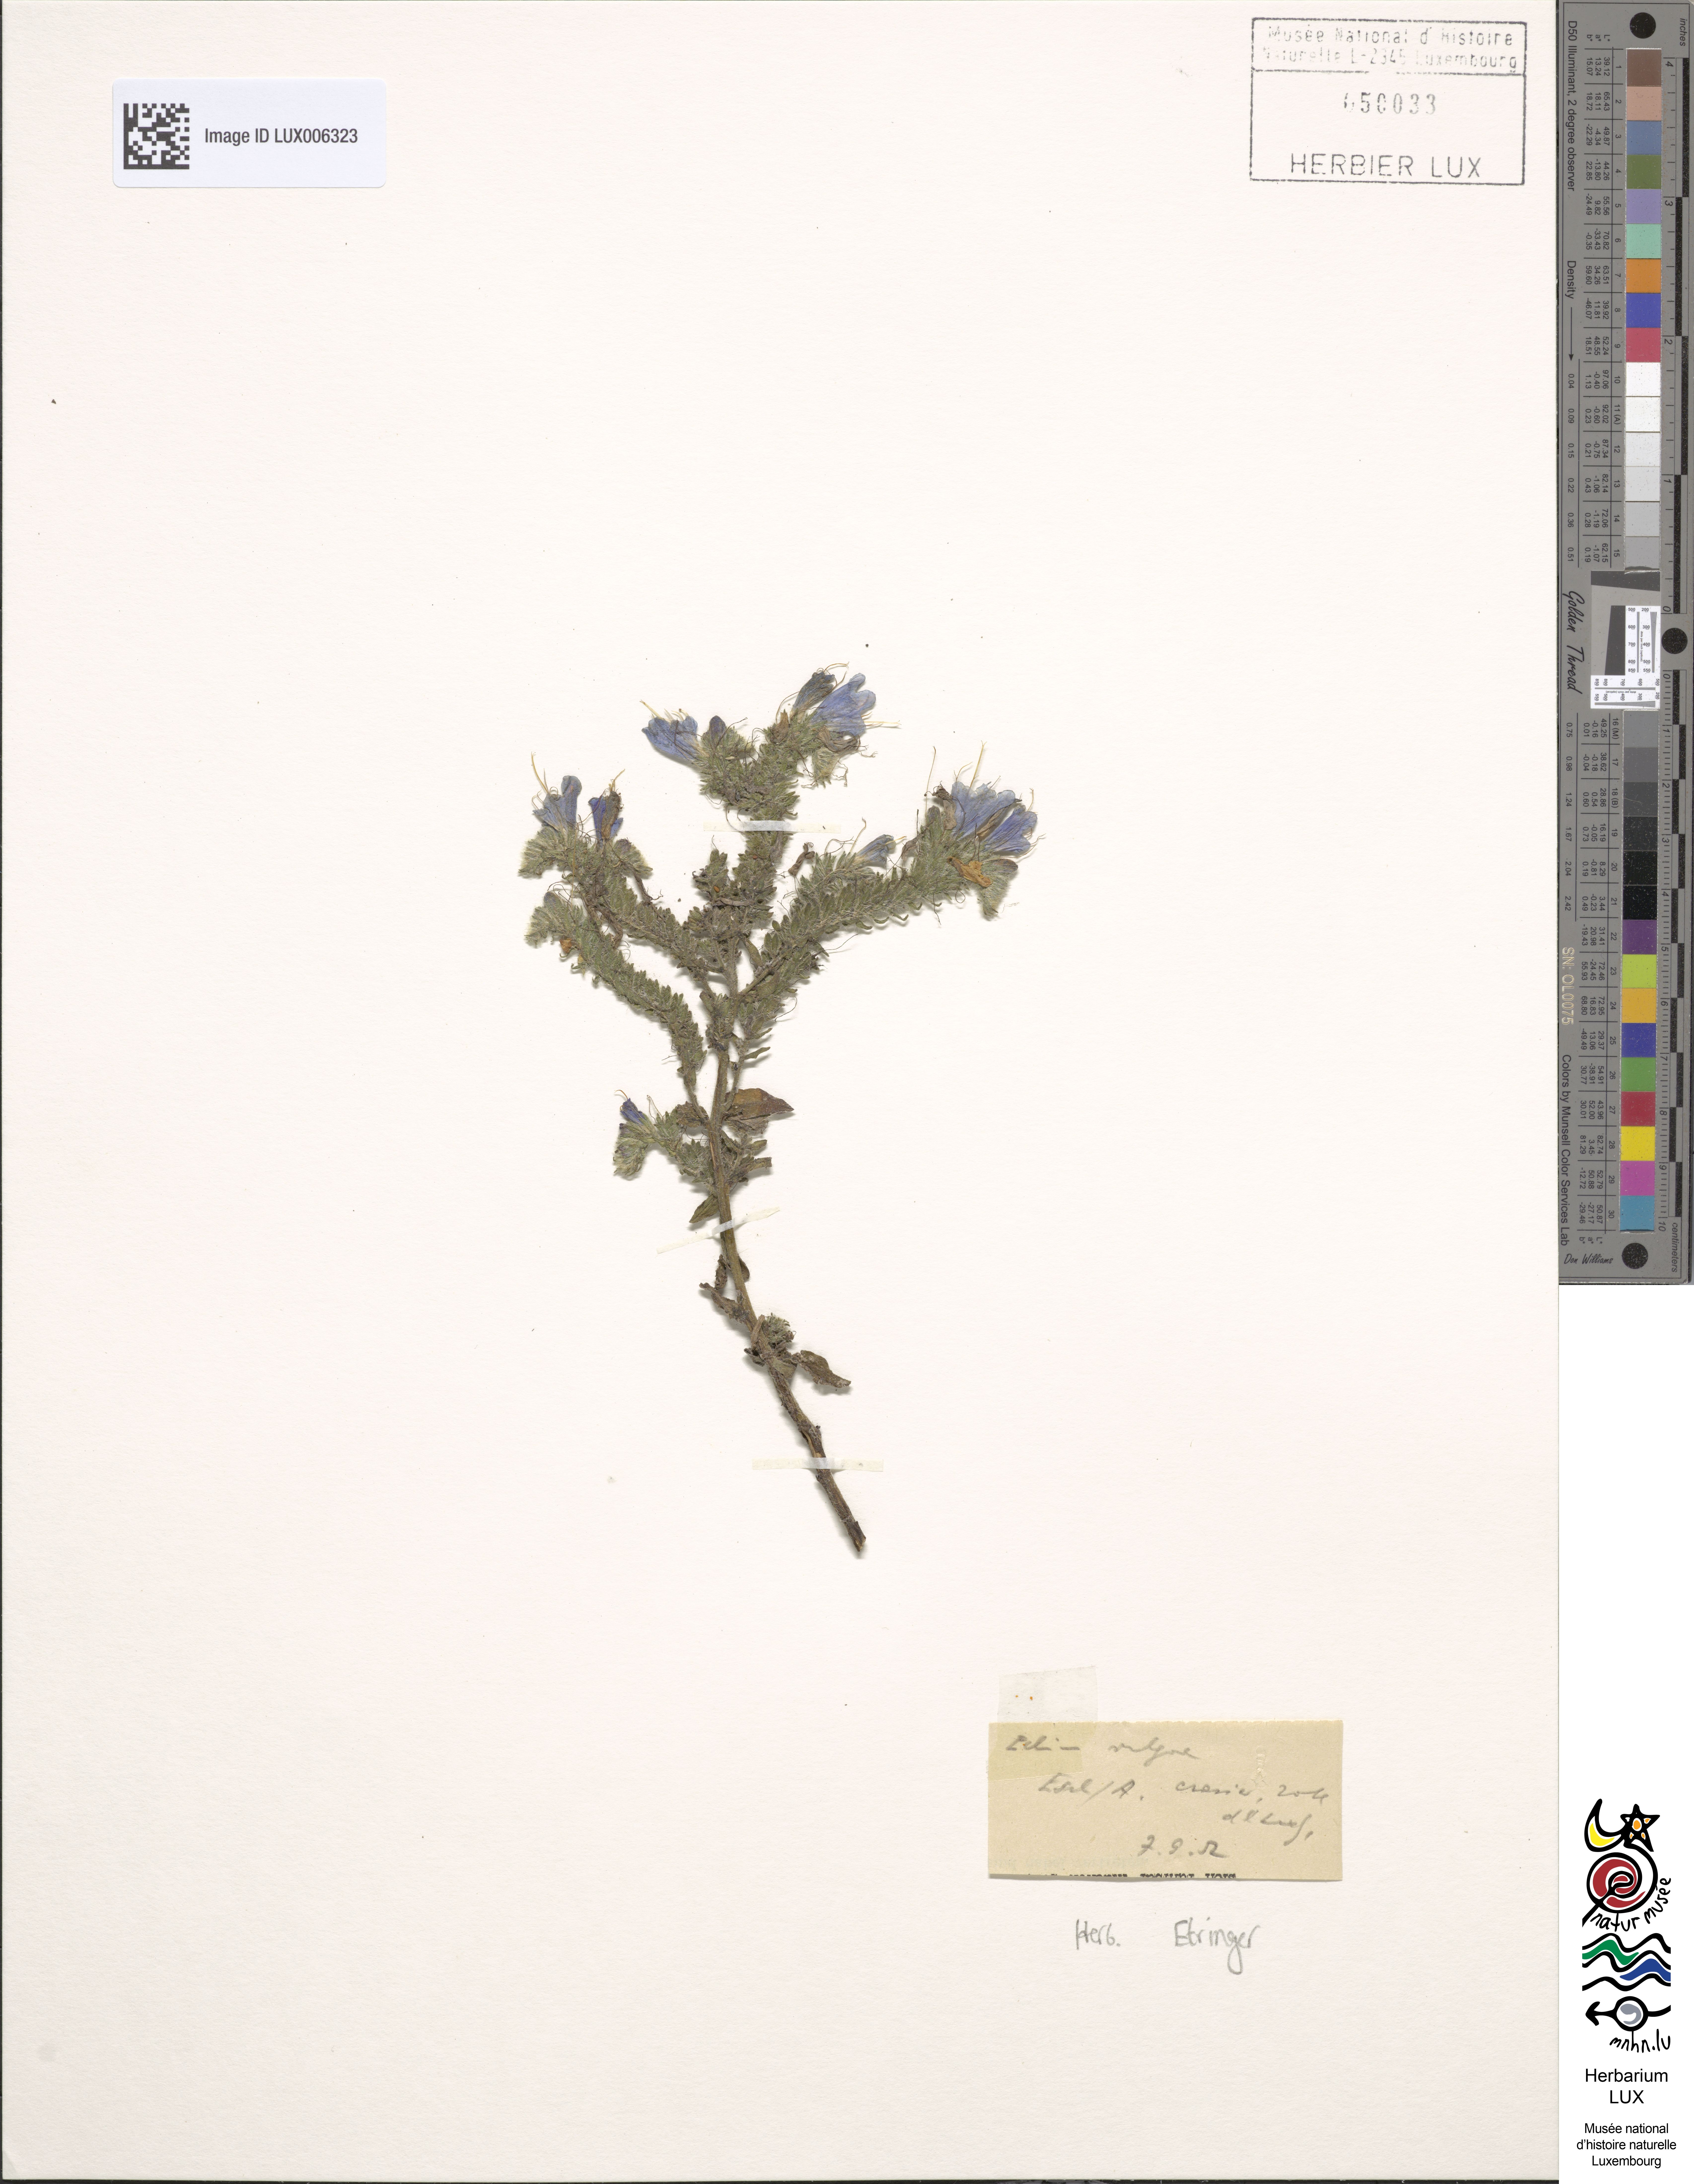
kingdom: Plantae
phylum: Tracheophyta
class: Magnoliopsida
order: Boraginales
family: Boraginaceae
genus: Echium
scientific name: Echium vulgare
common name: Common viper's bugloss
